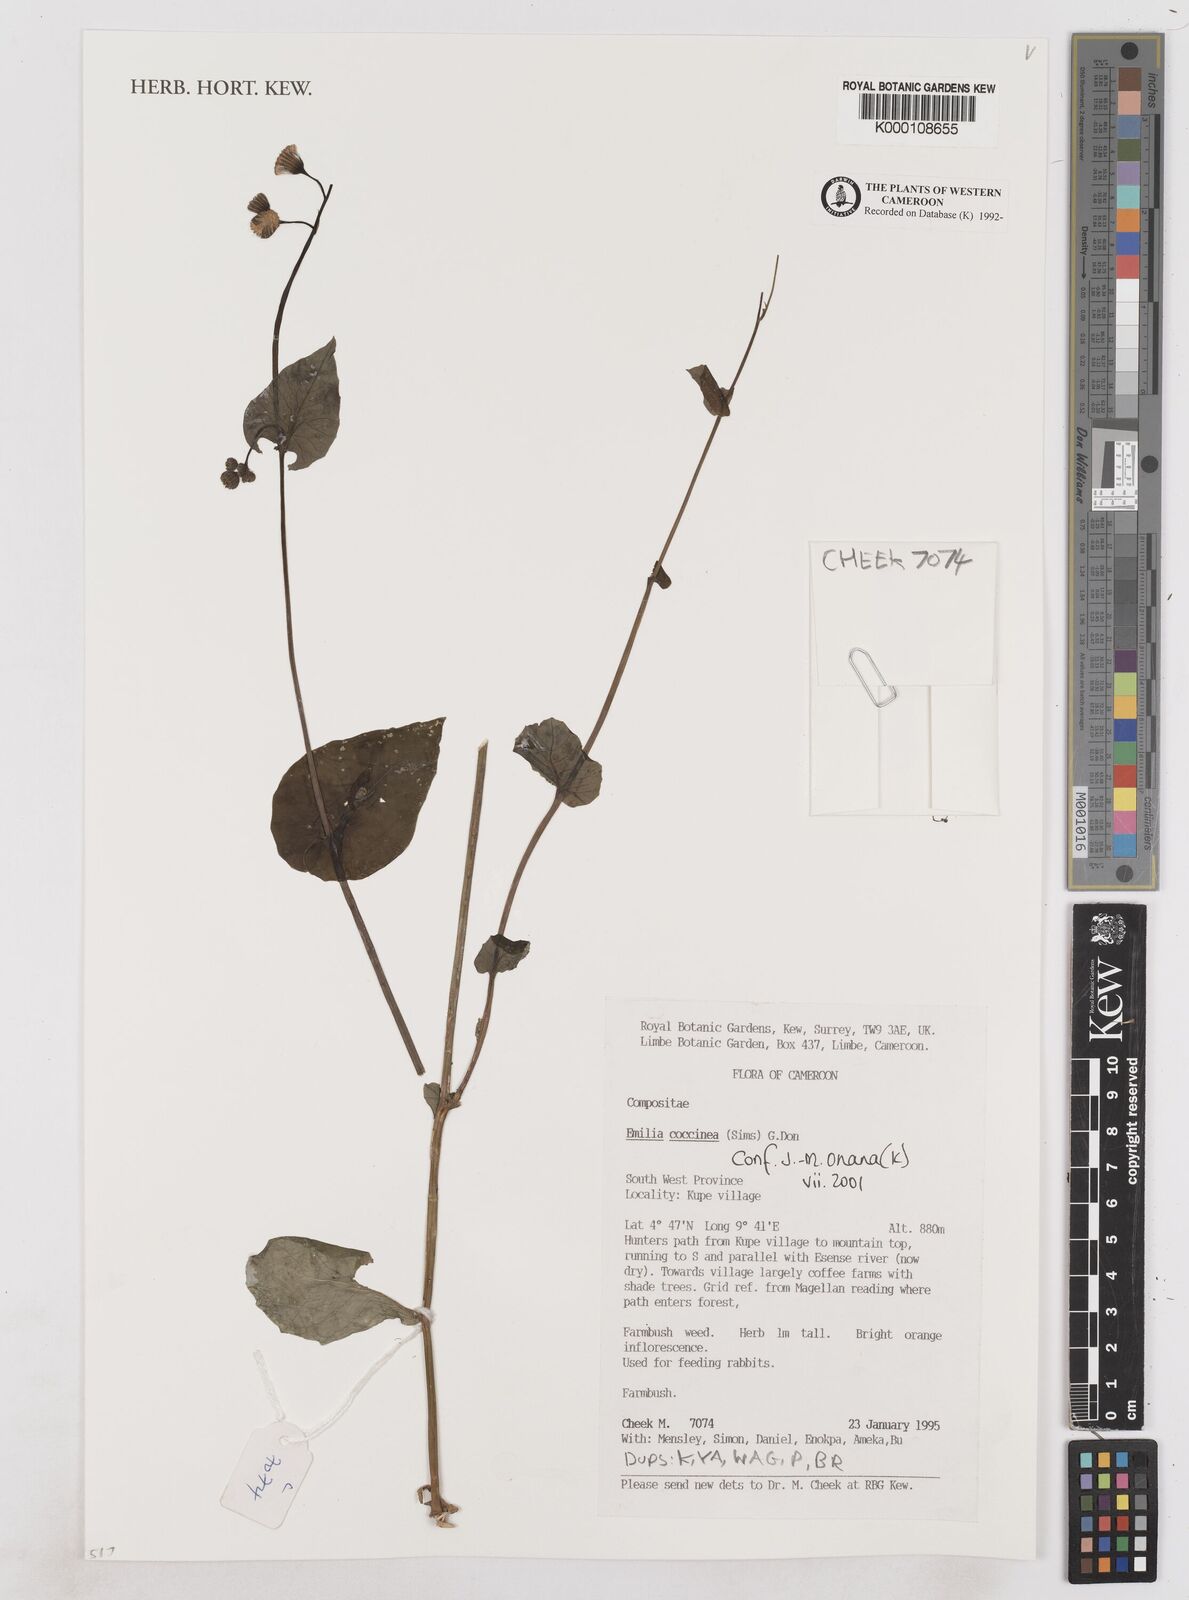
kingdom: Plantae
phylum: Tracheophyta
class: Magnoliopsida
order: Asterales
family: Asteraceae
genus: Emilia
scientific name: Emilia coccinea
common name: Scarlet tasselflower
